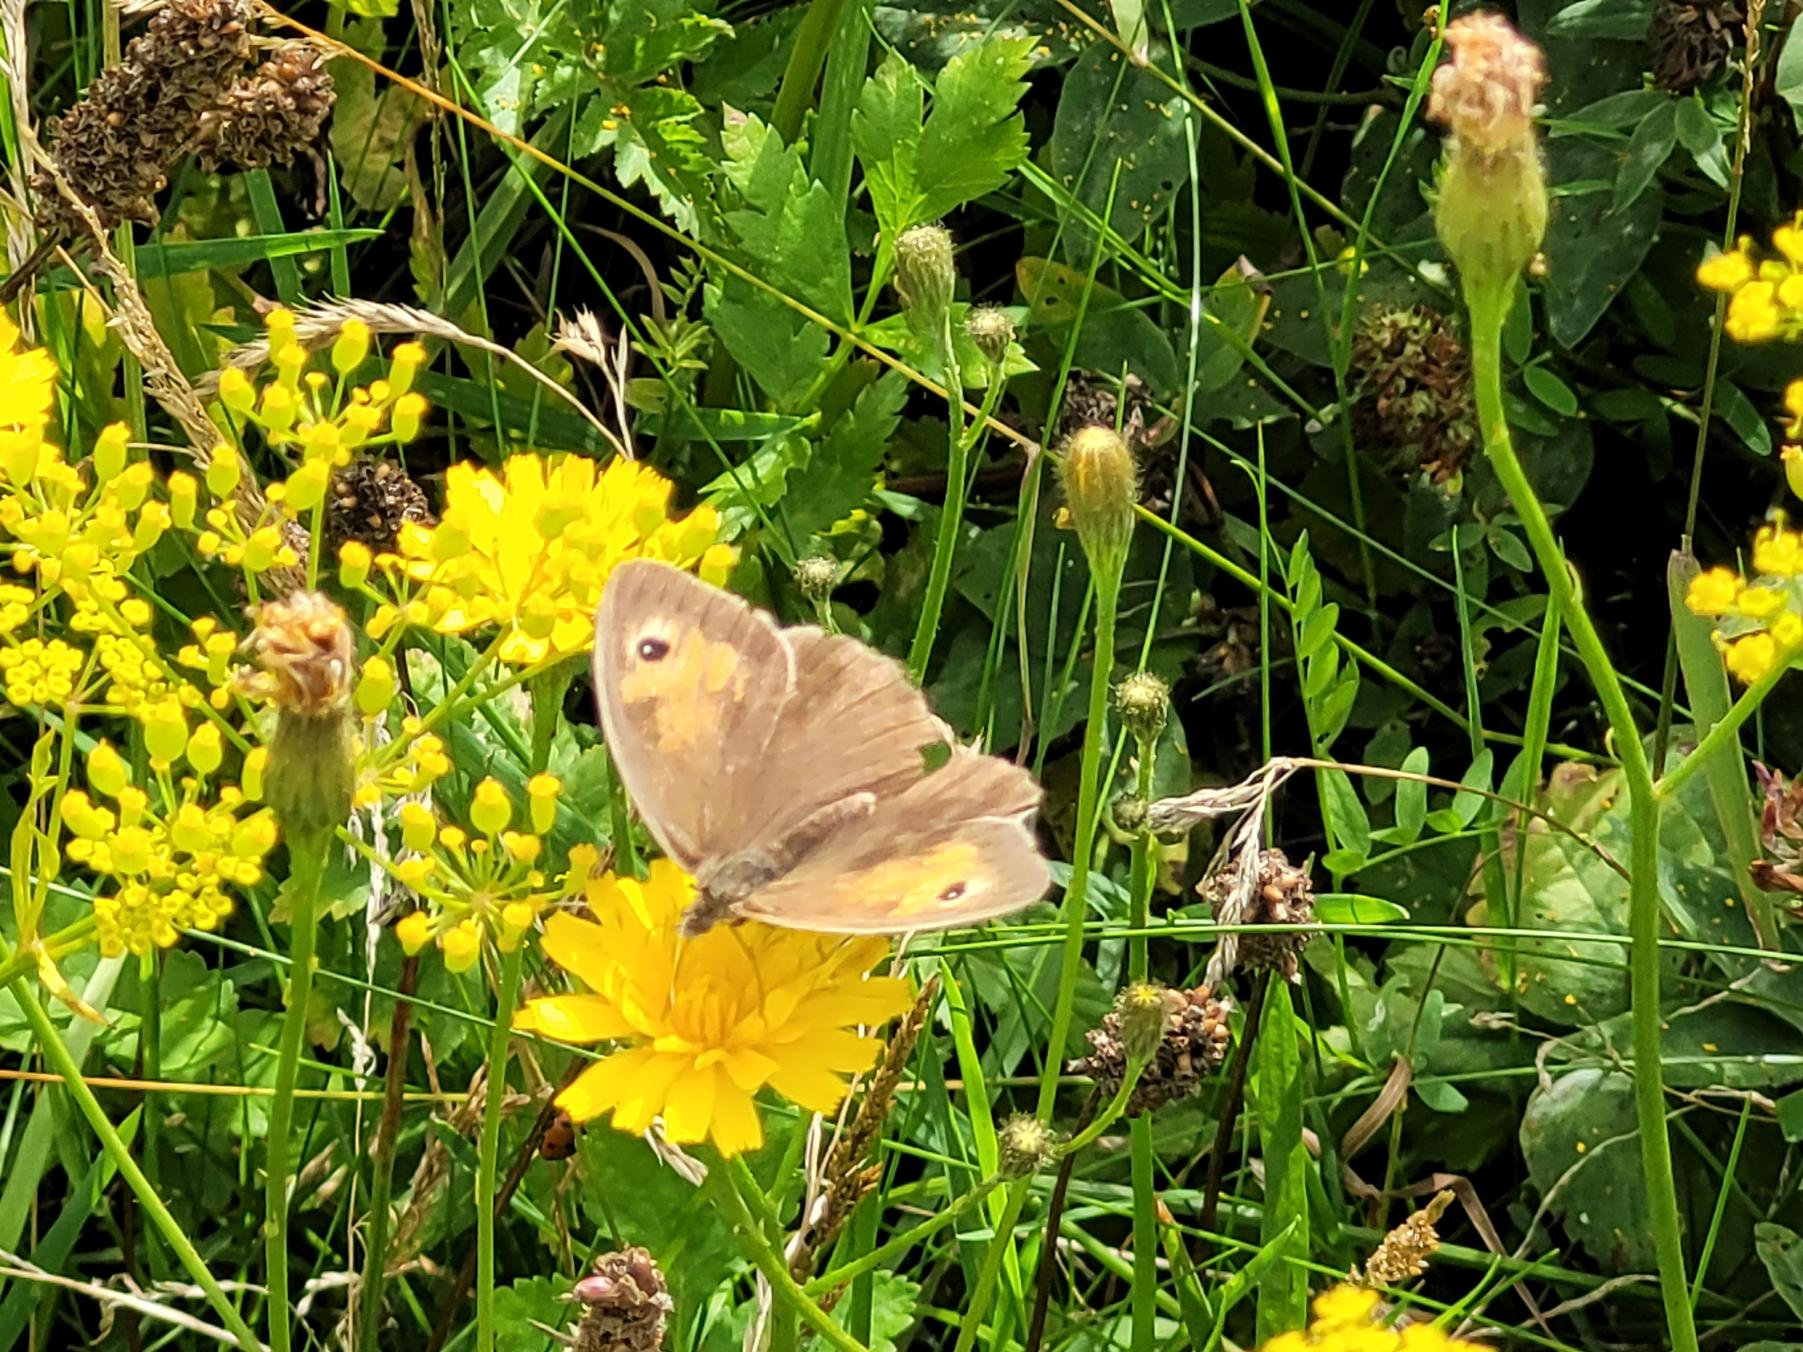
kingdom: Animalia
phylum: Arthropoda
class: Insecta
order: Lepidoptera
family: Nymphalidae
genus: Maniola
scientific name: Maniola jurtina
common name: Græsrandøje
